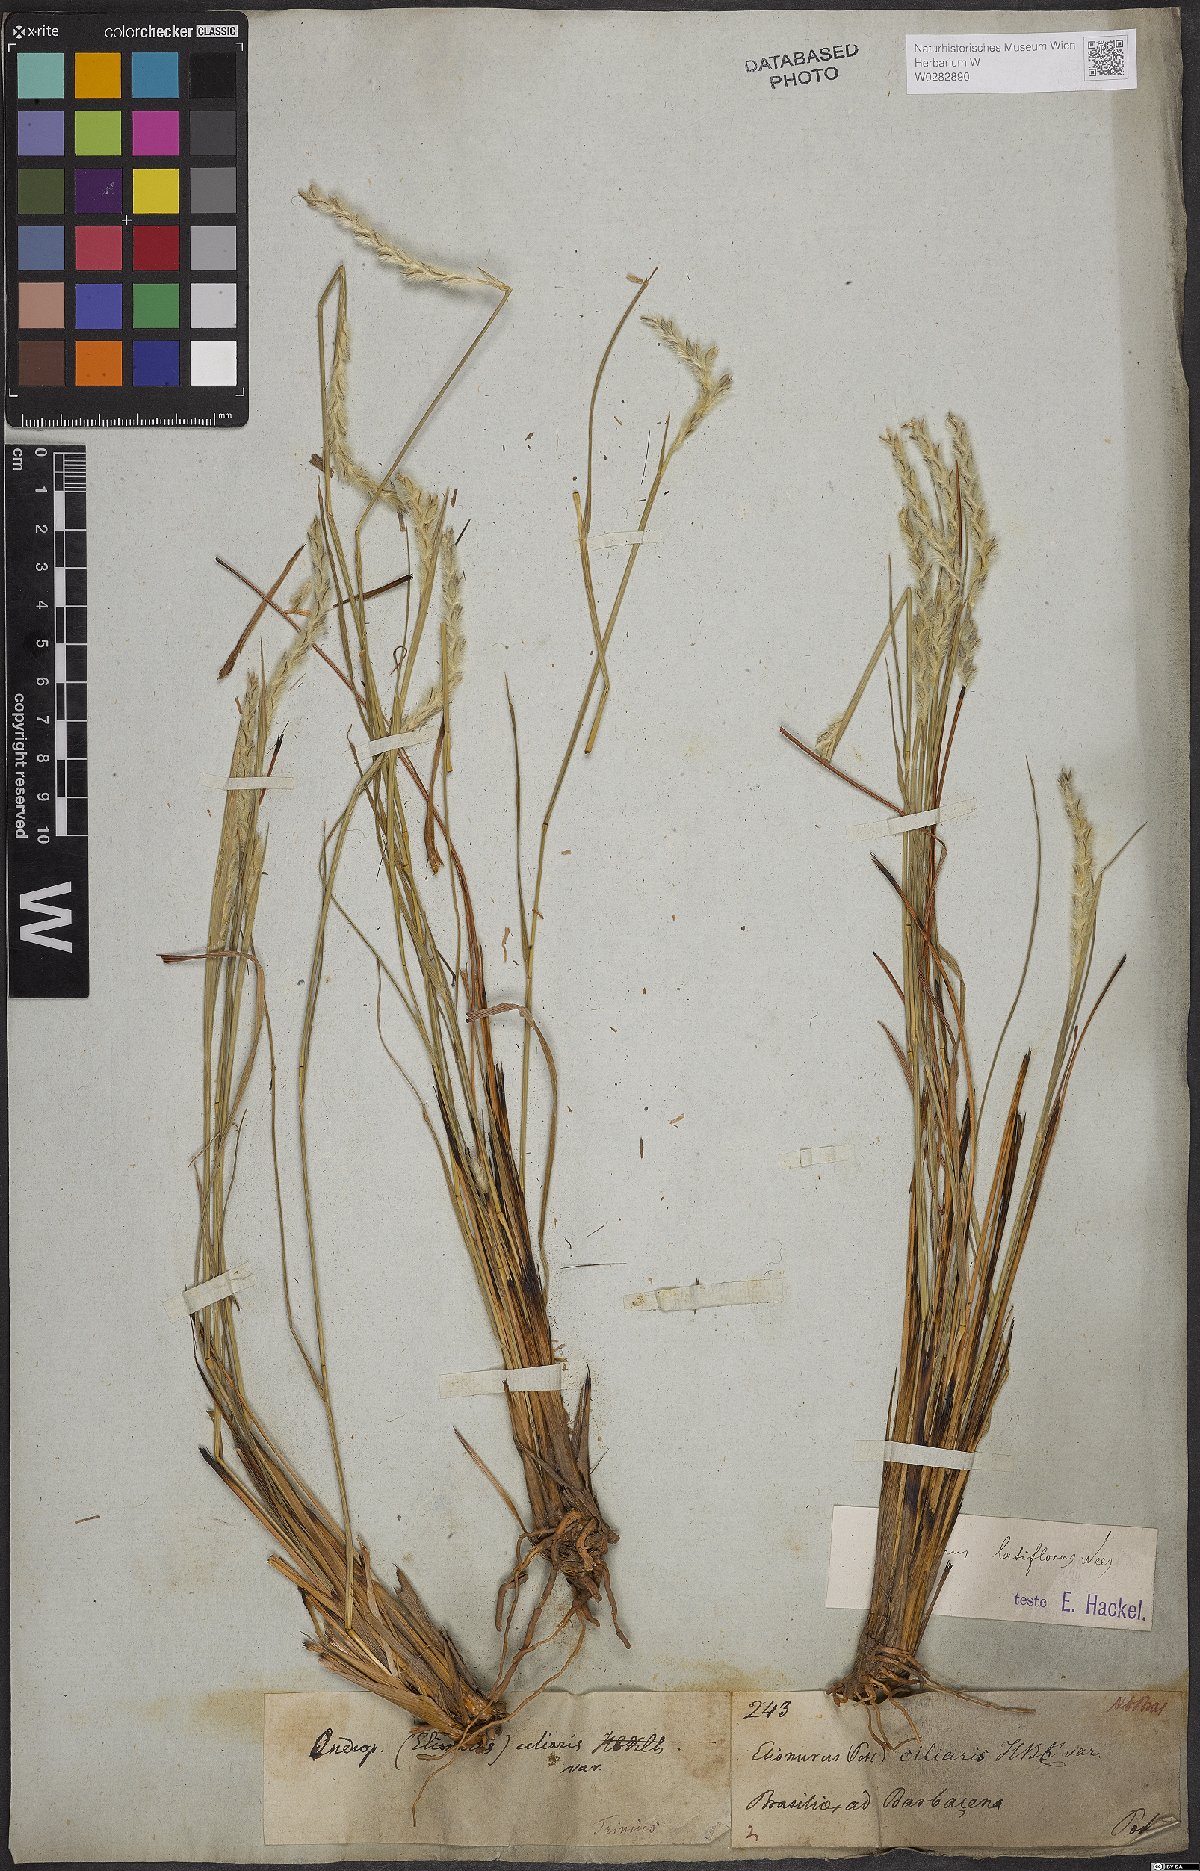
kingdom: Plantae
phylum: Tracheophyta
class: Liliopsida
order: Poales
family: Poaceae
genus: Elionurus
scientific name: Elionurus muticus
